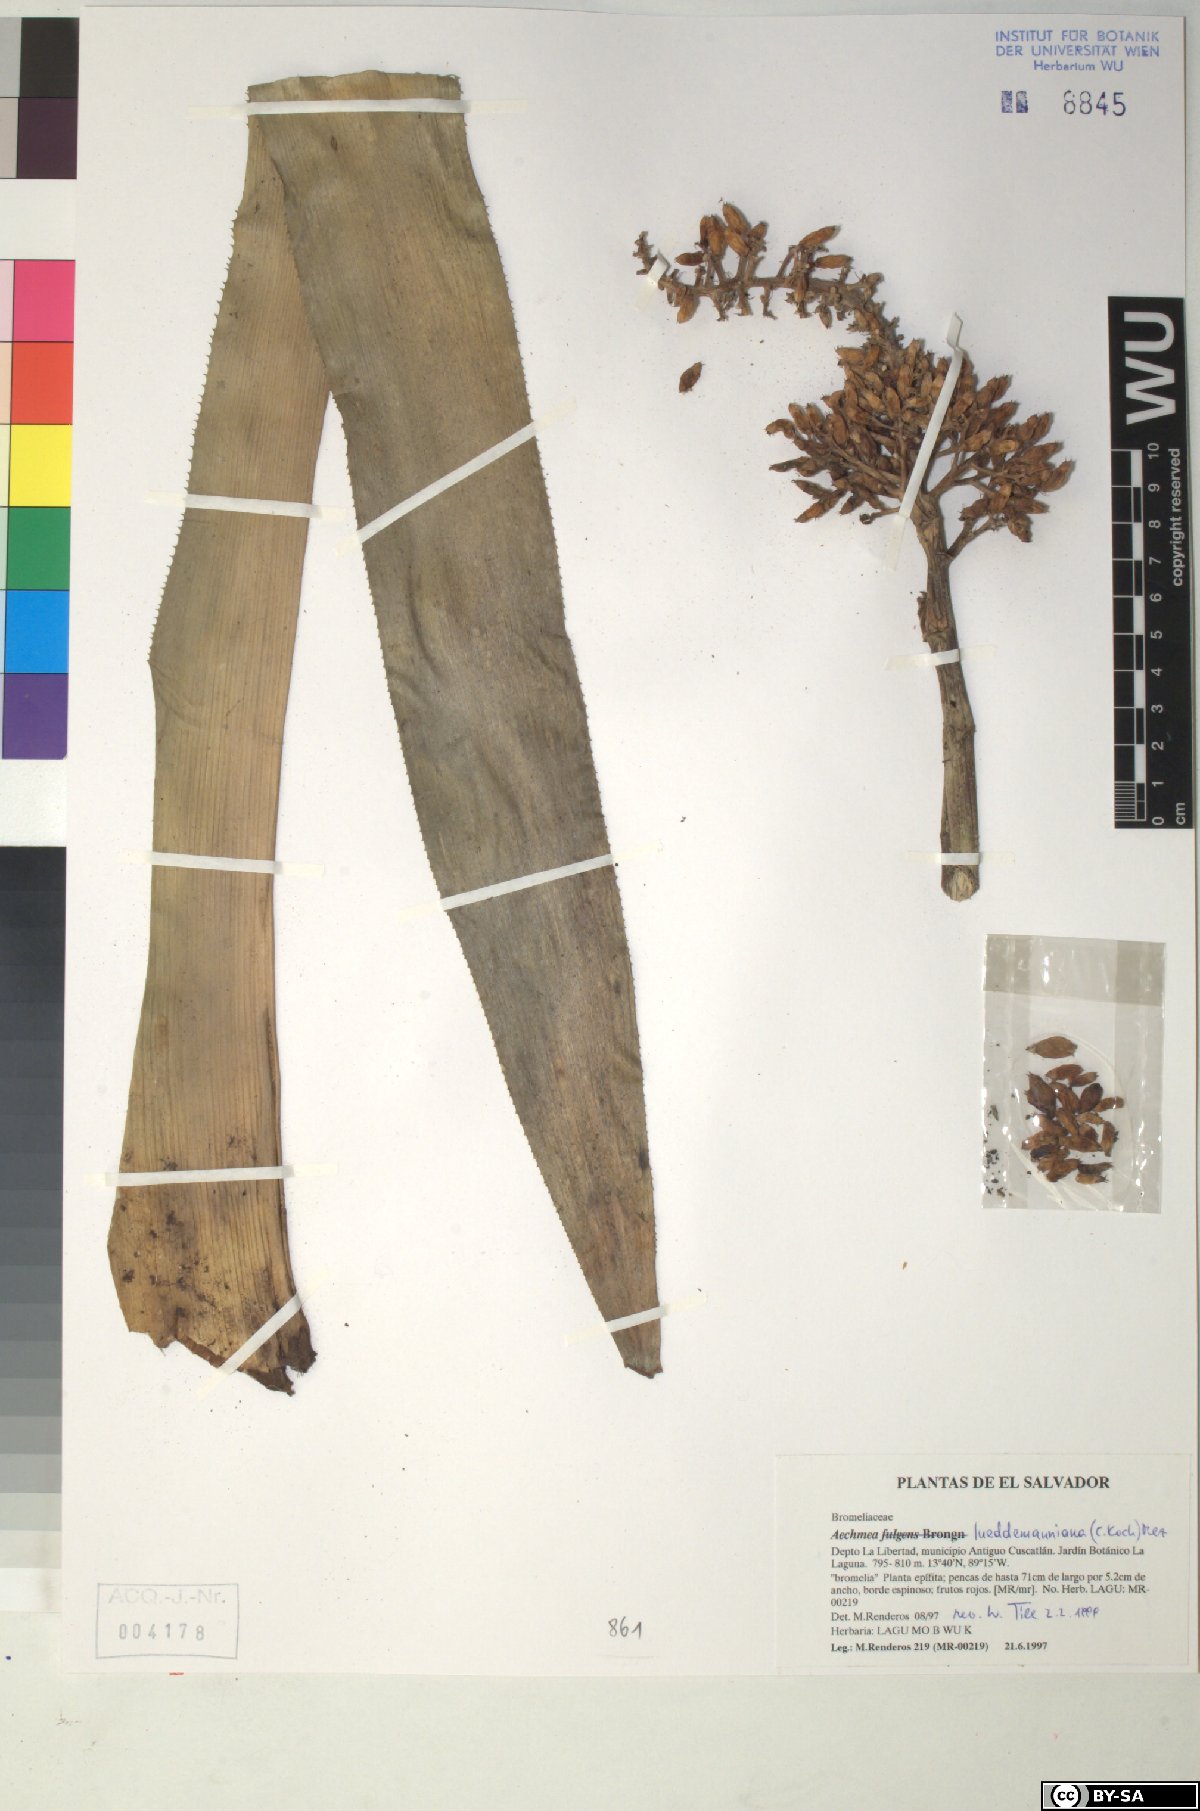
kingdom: Plantae
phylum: Tracheophyta
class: Liliopsida
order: Poales
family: Bromeliaceae
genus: Aechmea
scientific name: Aechmea lueddemanniana
